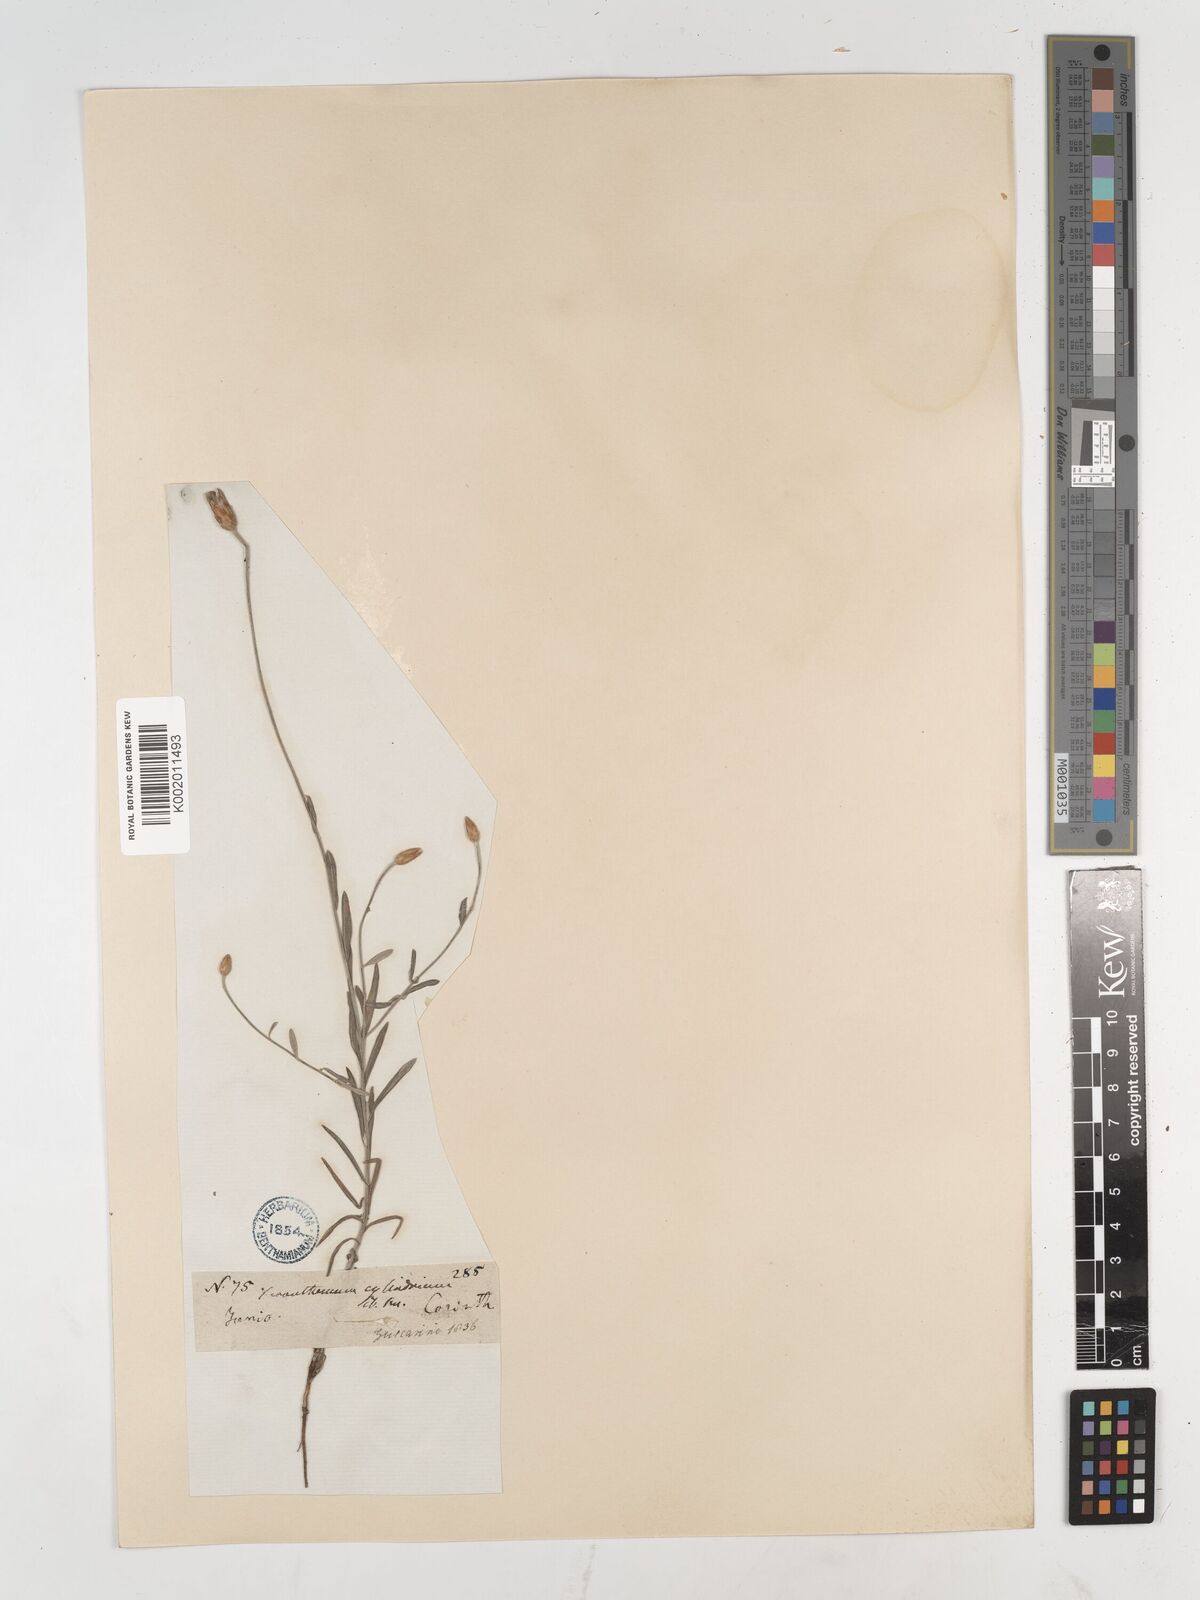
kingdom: Plantae
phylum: Tracheophyta
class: Magnoliopsida
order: Asterales
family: Asteraceae
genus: Xeranthemum
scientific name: Xeranthemum
